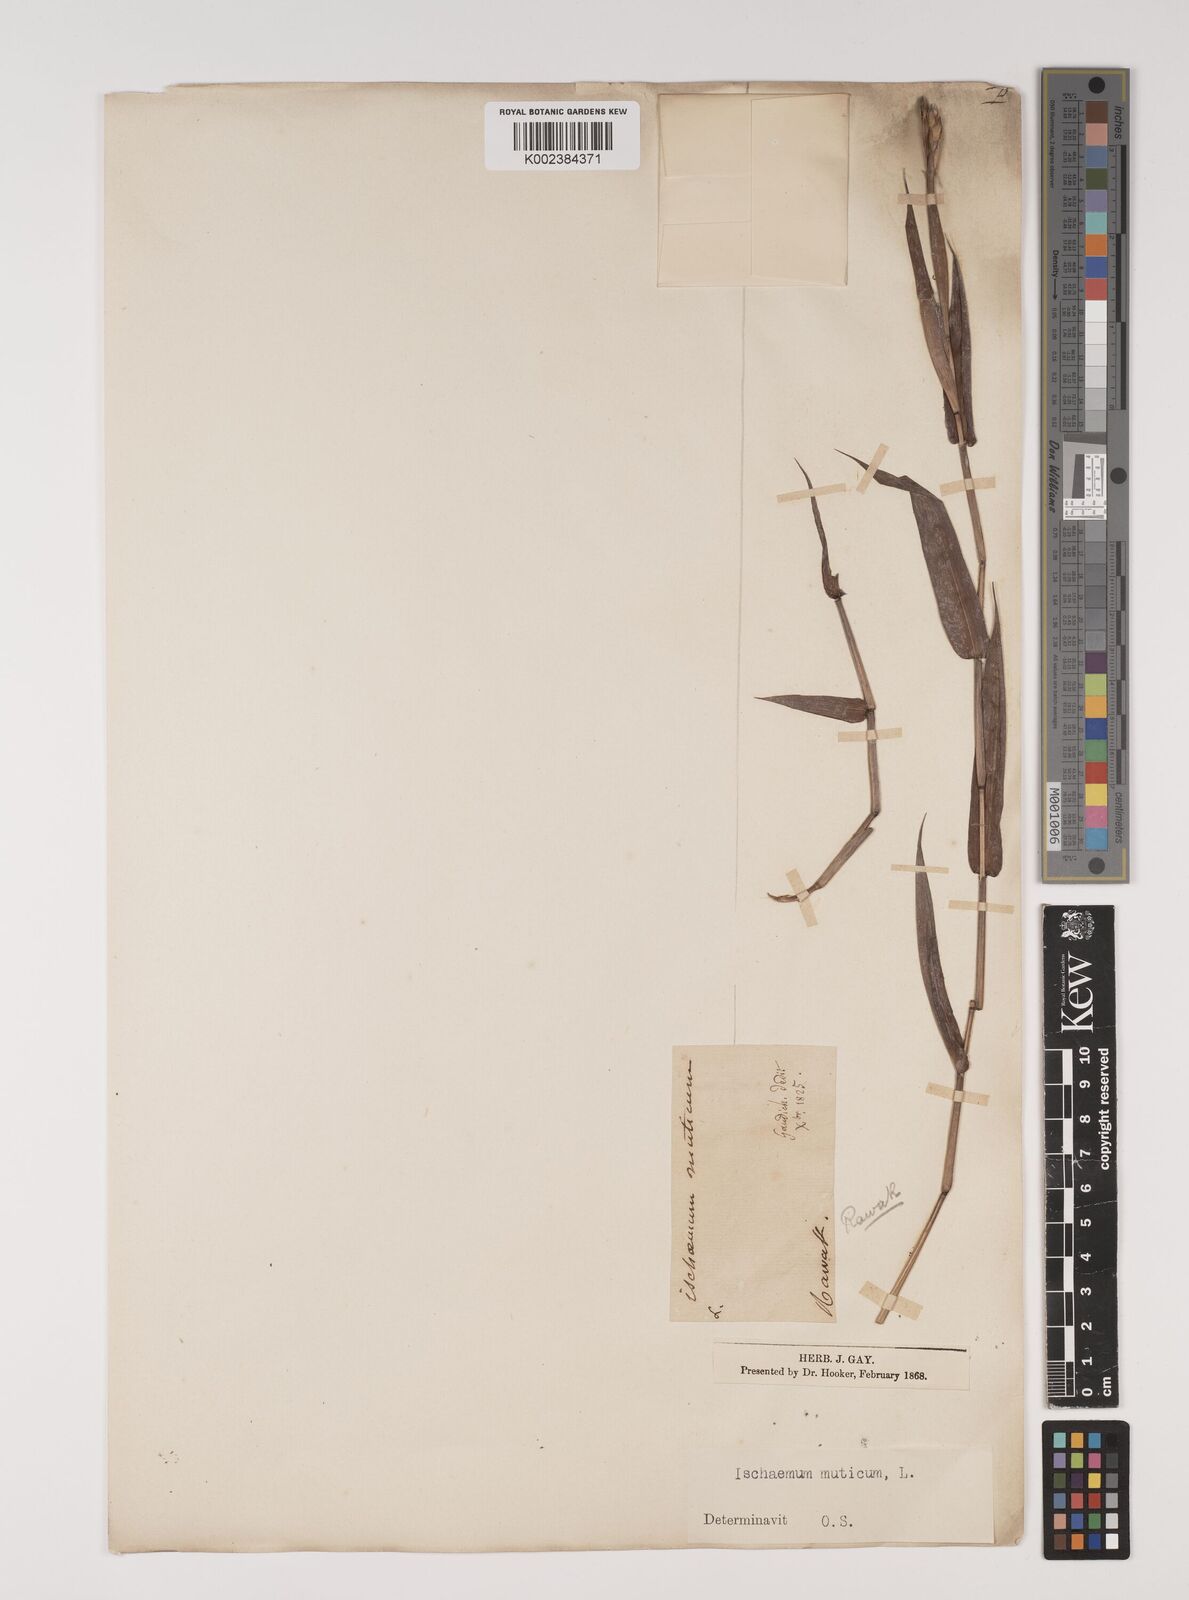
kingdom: Plantae
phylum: Tracheophyta
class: Liliopsida
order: Poales
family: Poaceae
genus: Ischaemum
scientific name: Ischaemum muticum
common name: Drought grass
